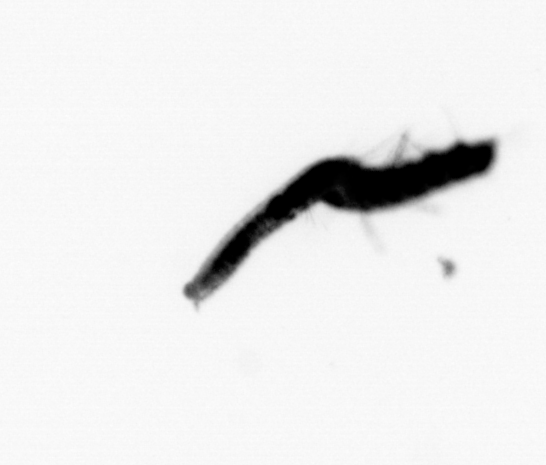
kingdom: Animalia
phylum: Annelida
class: Polychaeta
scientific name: Polychaeta
